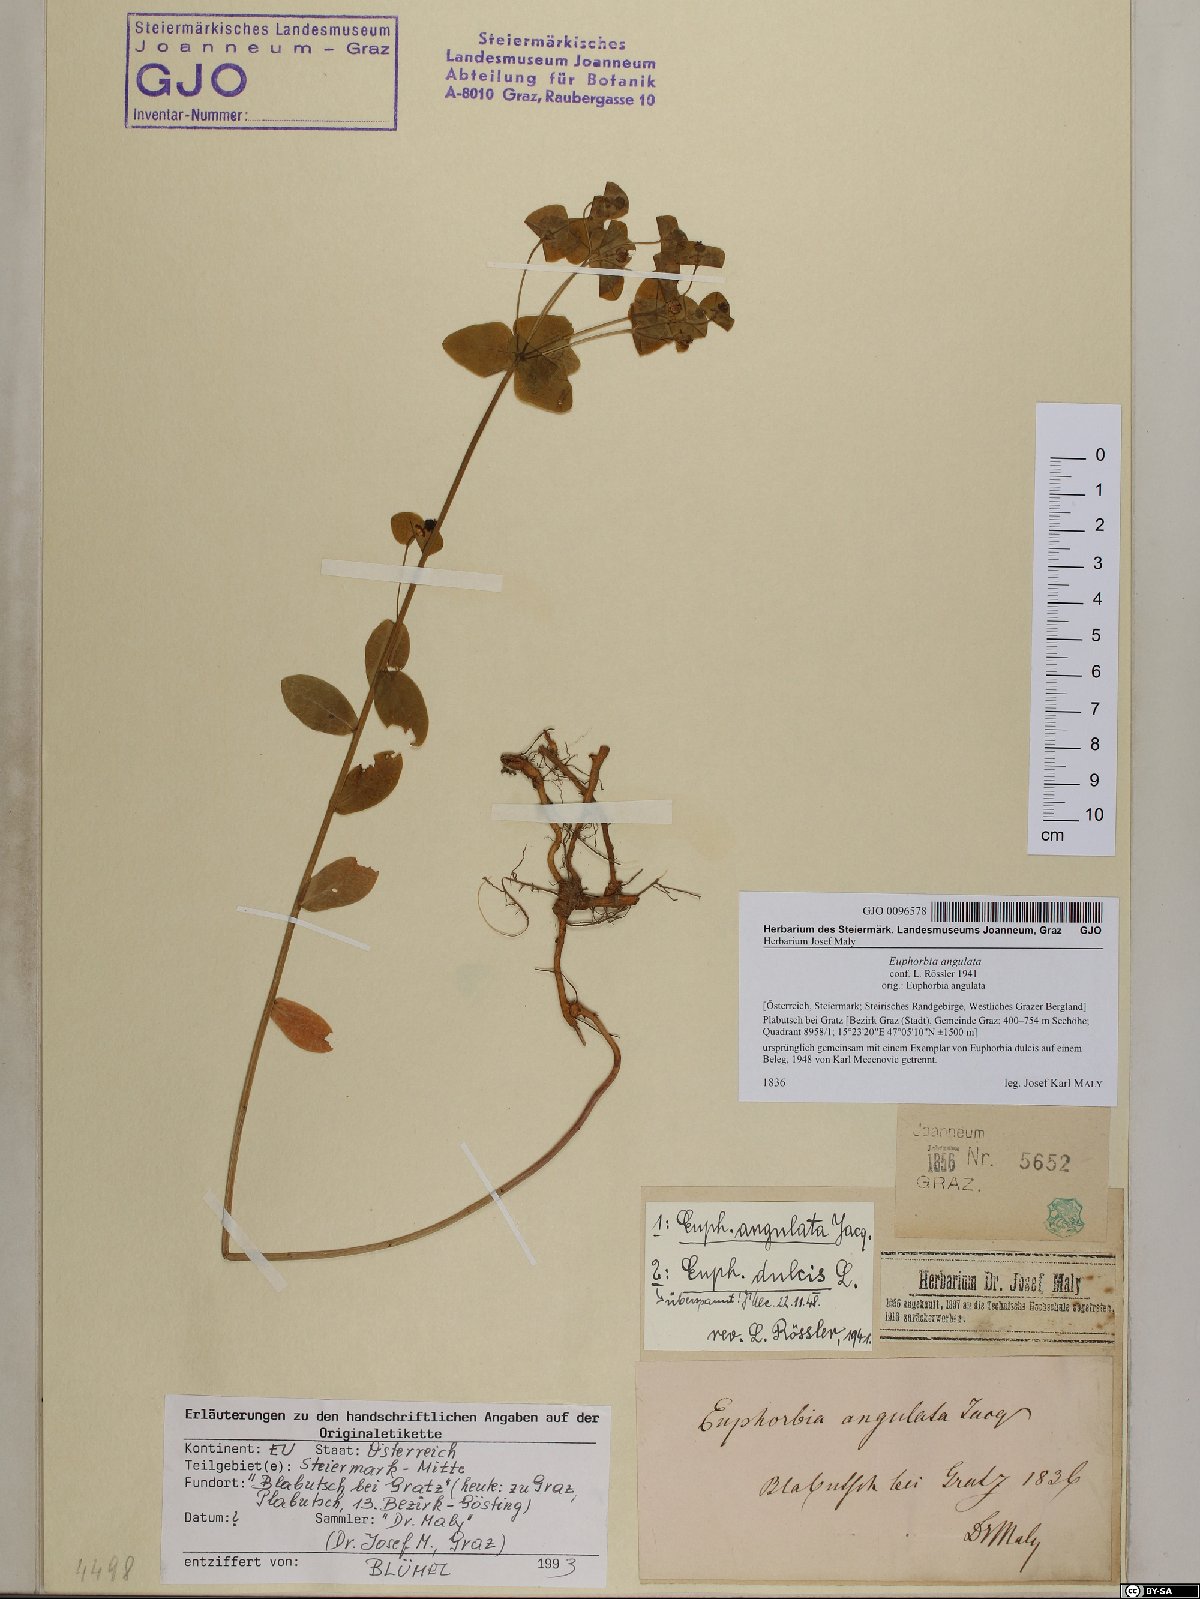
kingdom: Plantae
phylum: Tracheophyta
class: Magnoliopsida
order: Malpighiales
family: Euphorbiaceae
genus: Euphorbia
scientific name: Euphorbia angulata
